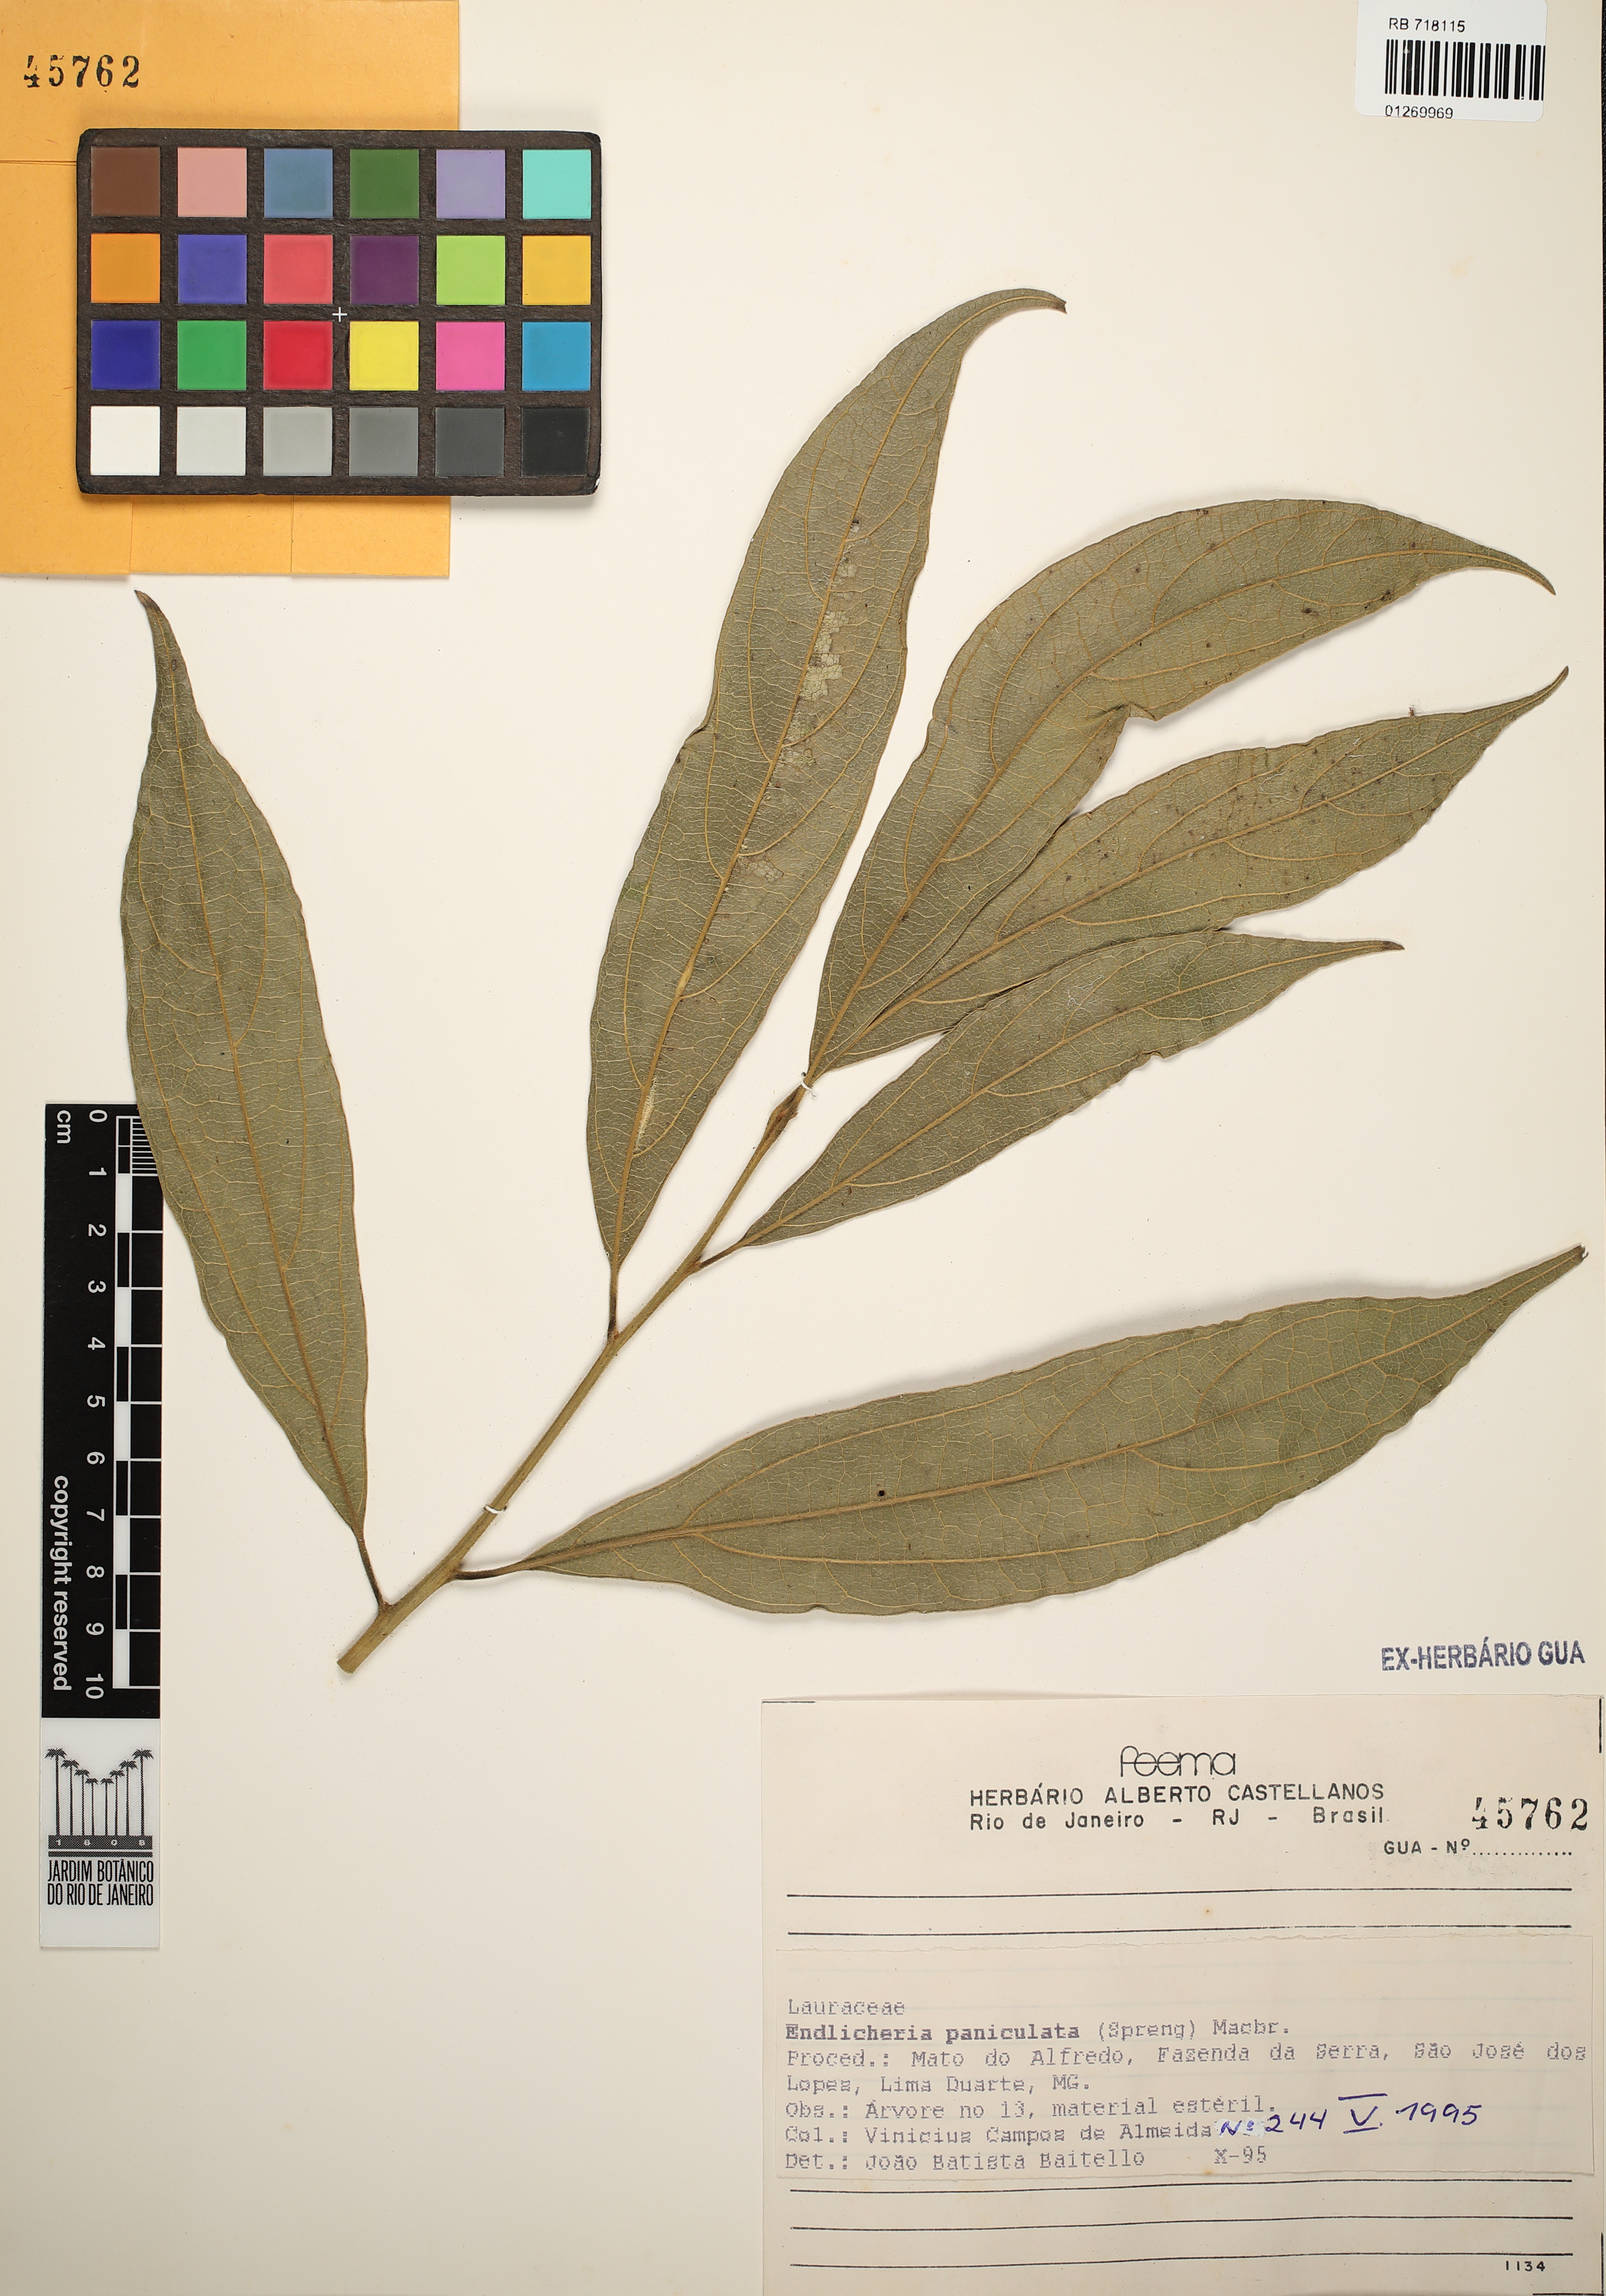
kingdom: Plantae
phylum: Tracheophyta
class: Magnoliopsida
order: Laurales
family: Lauraceae
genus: Endlicheria
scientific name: Endlicheria paniculata
